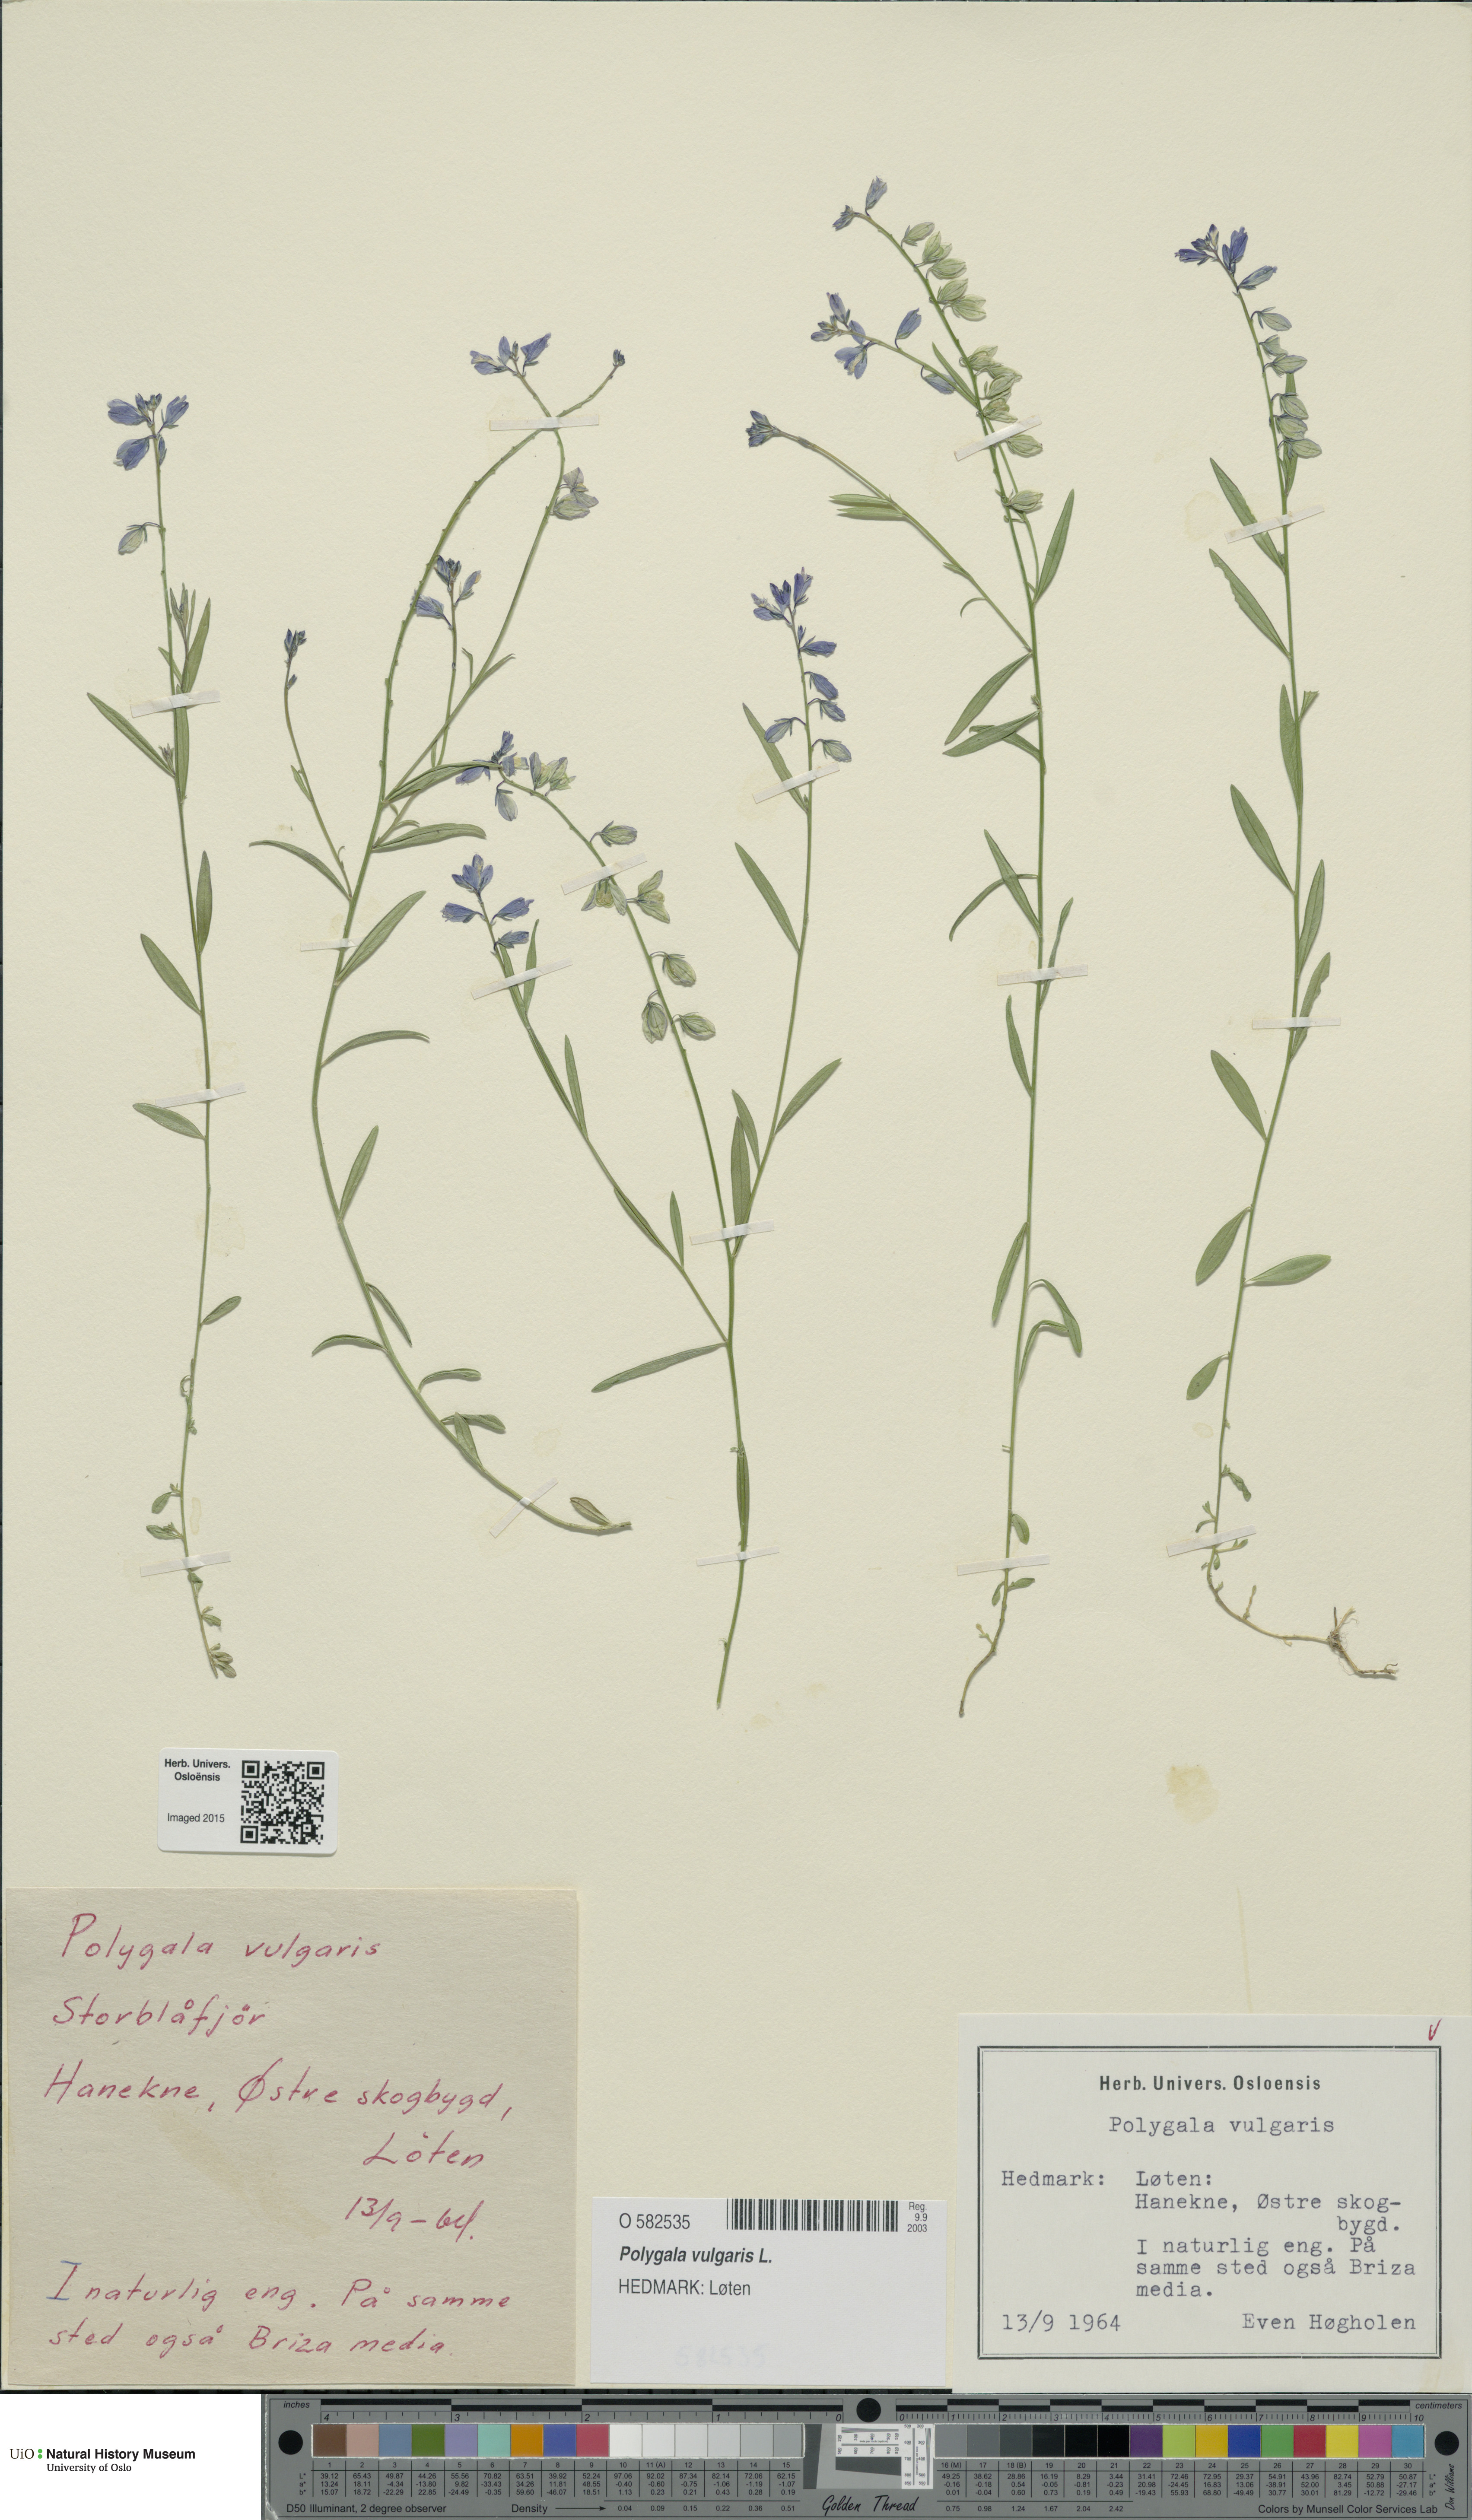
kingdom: Plantae
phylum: Tracheophyta
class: Magnoliopsida
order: Fabales
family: Polygalaceae
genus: Polygala
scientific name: Polygala vulgaris
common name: Common milkwort
